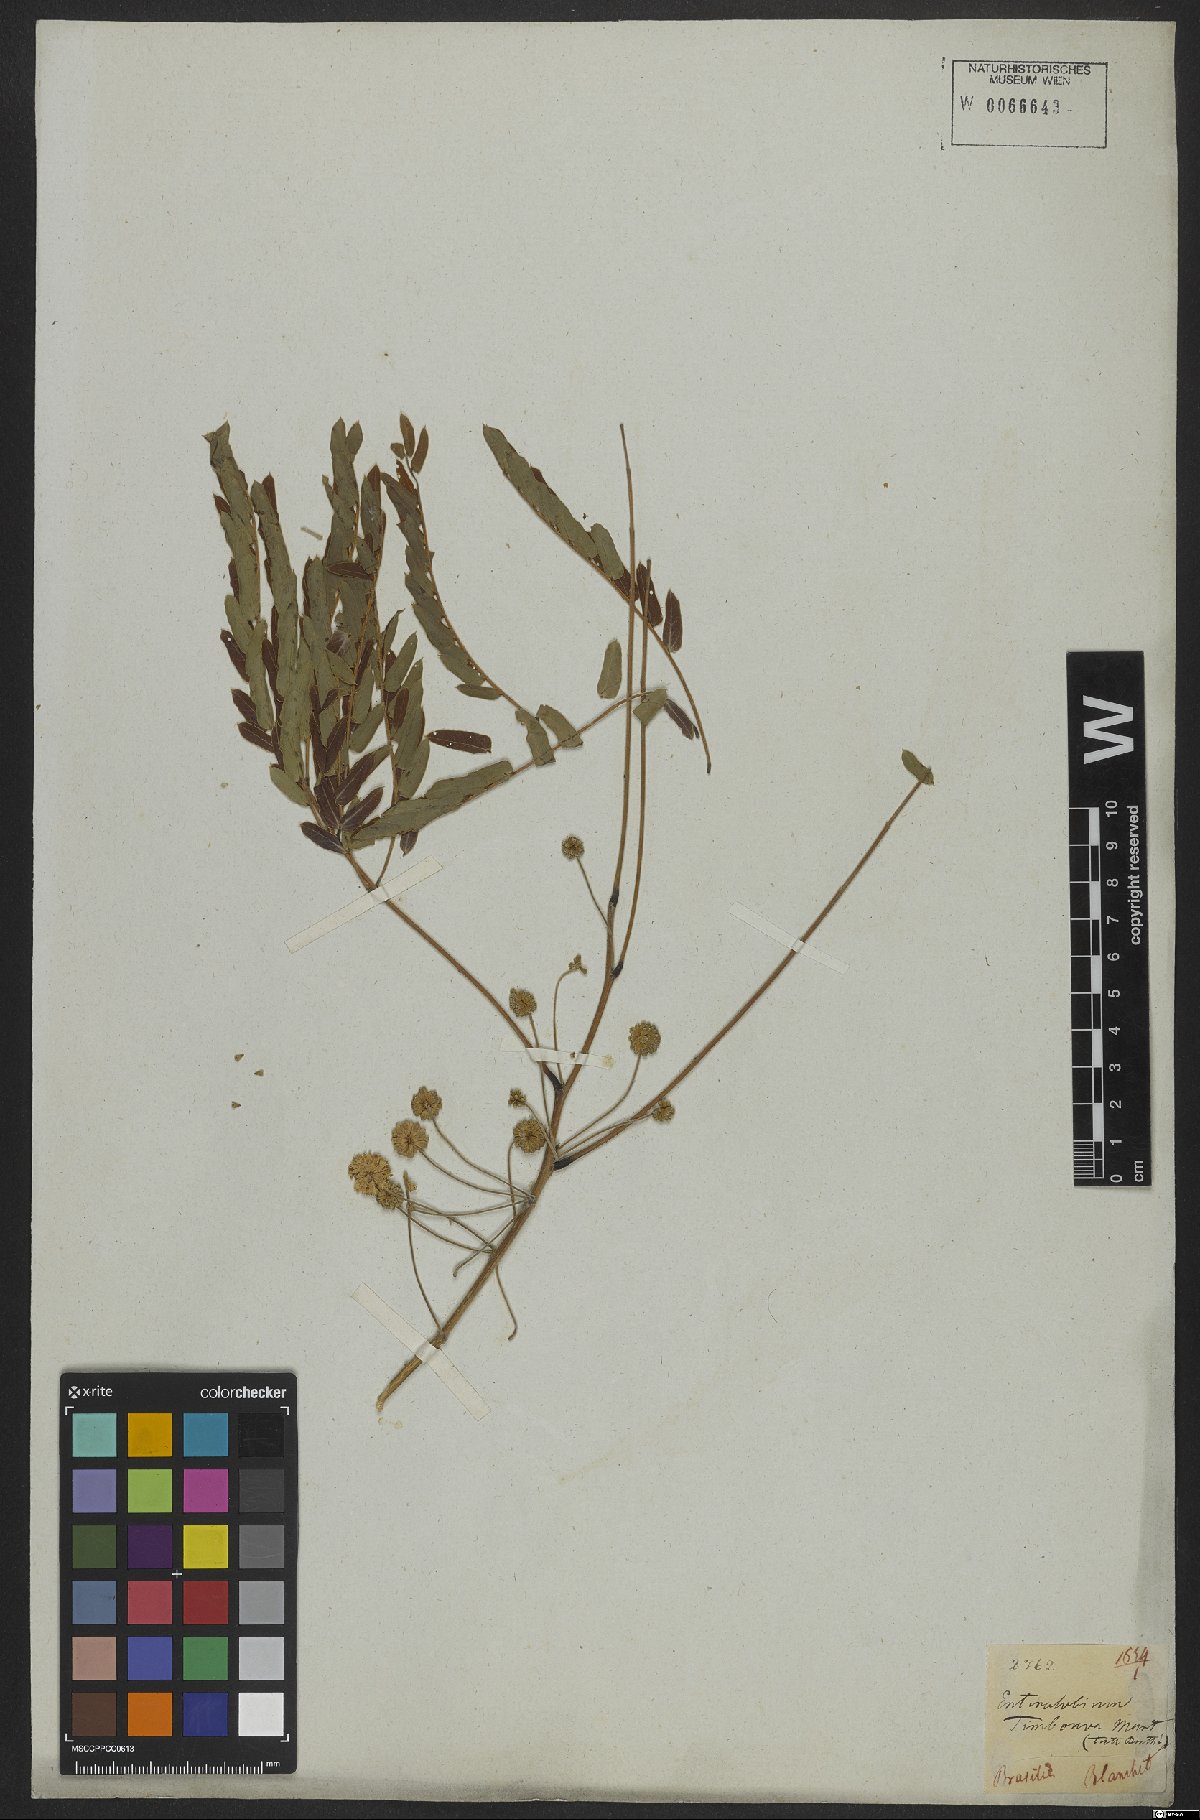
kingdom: Plantae
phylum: Tracheophyta
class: Magnoliopsida
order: Fabales
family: Fabaceae
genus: Enterolobium
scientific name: Enterolobium timbouva
